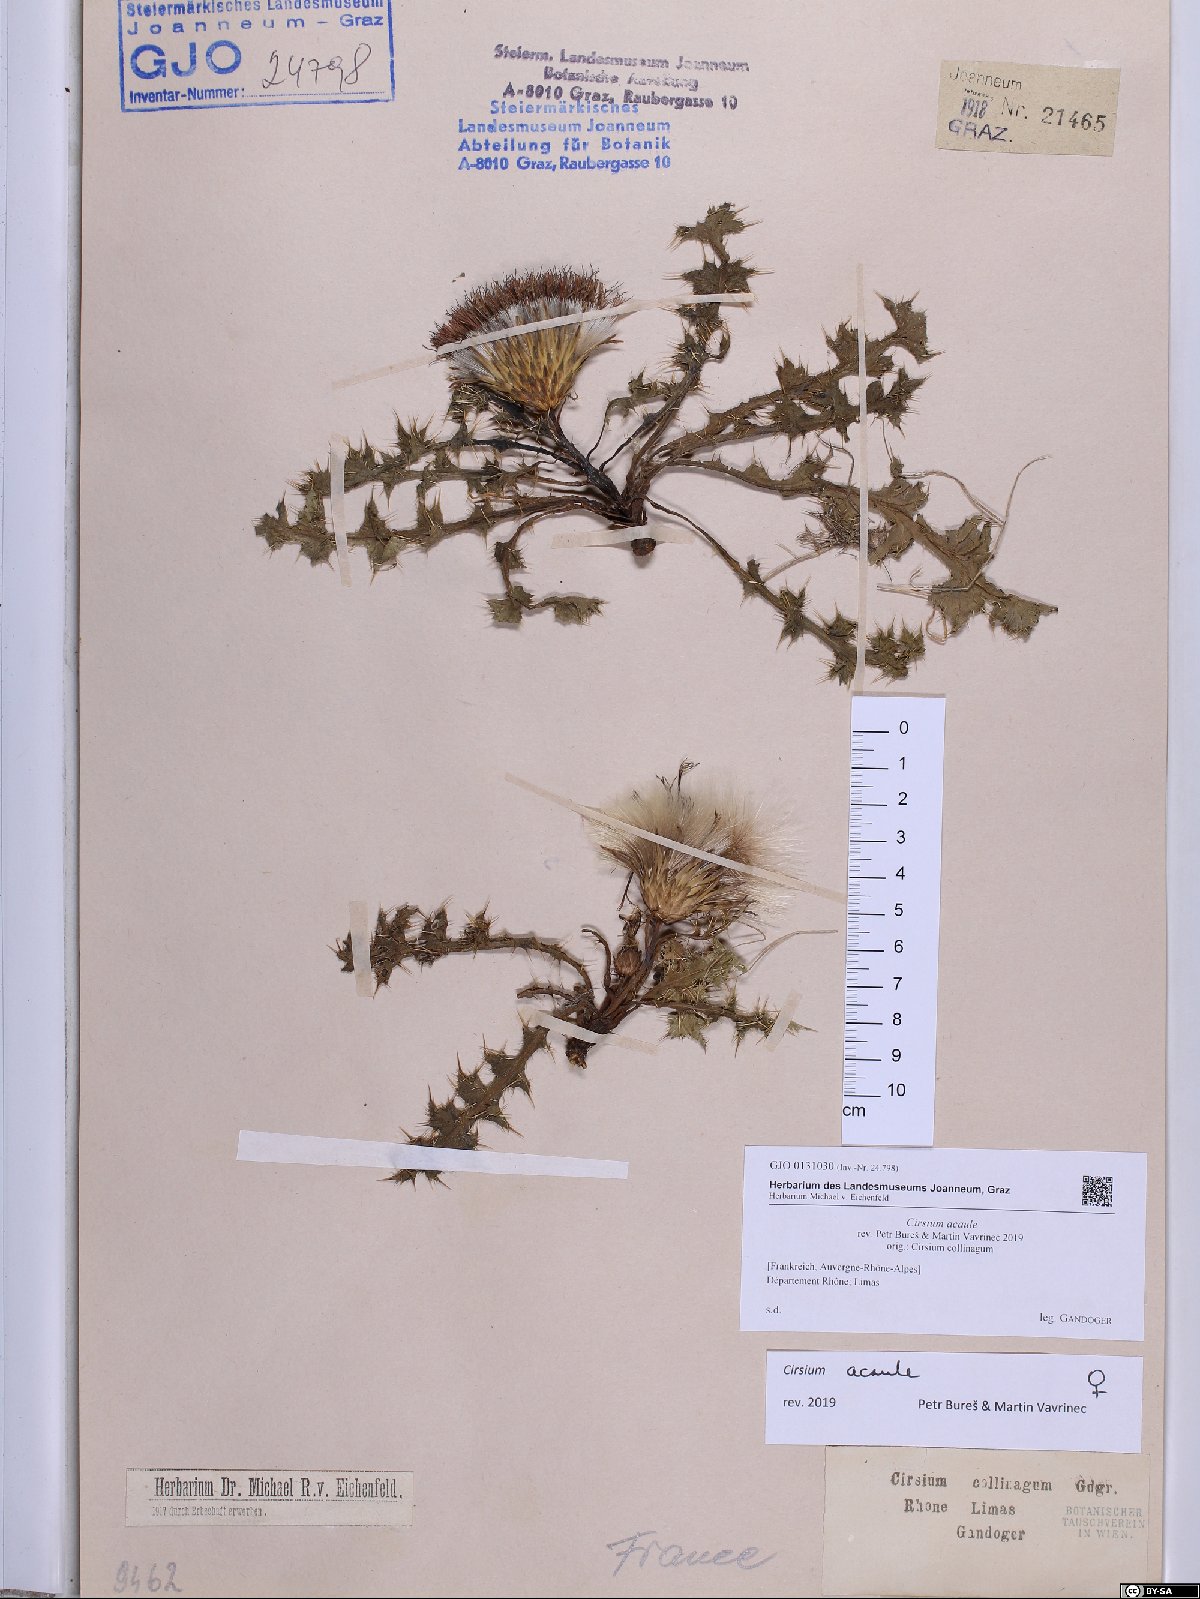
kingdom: Plantae
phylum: Tracheophyta
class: Magnoliopsida
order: Asterales
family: Asteraceae
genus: Cirsium
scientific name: Cirsium acaule
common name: Dwarf thistle
